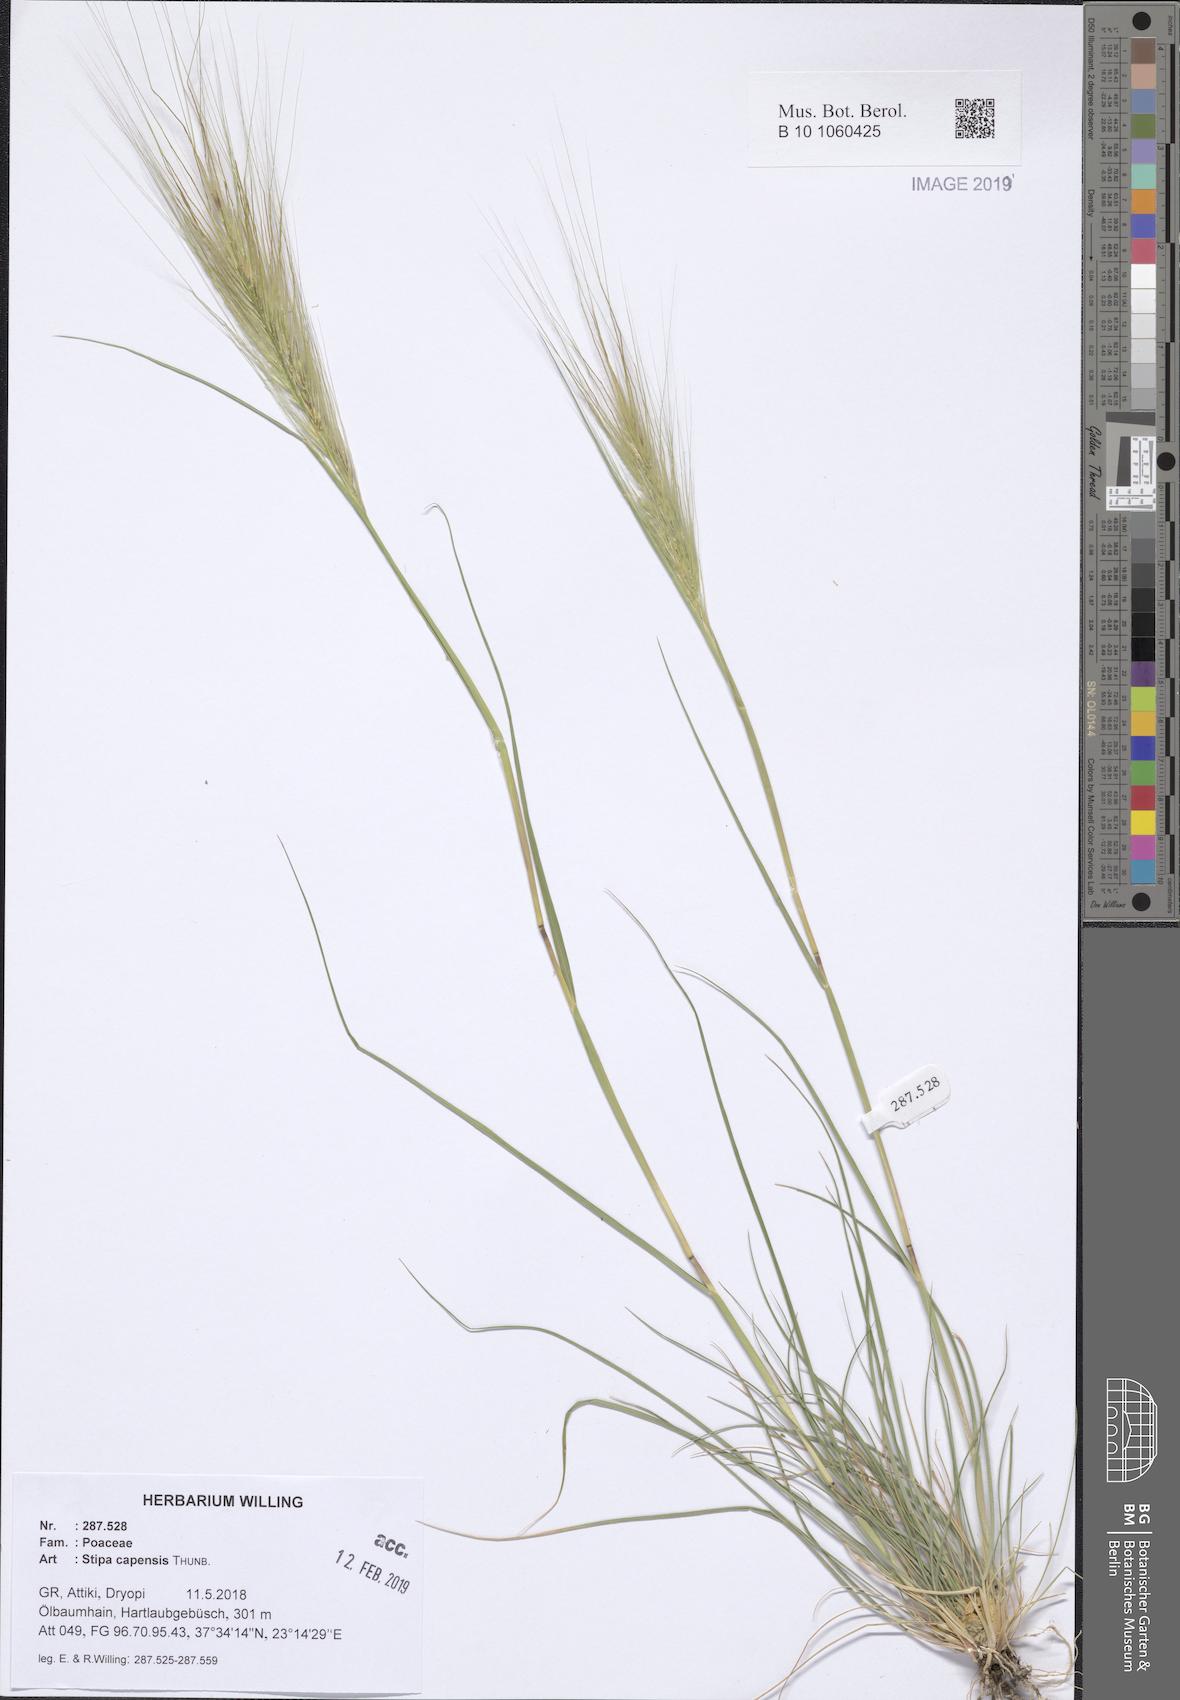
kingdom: Plantae
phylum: Tracheophyta
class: Liliopsida
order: Poales
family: Poaceae
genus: Stipellula
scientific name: Stipellula capensis
